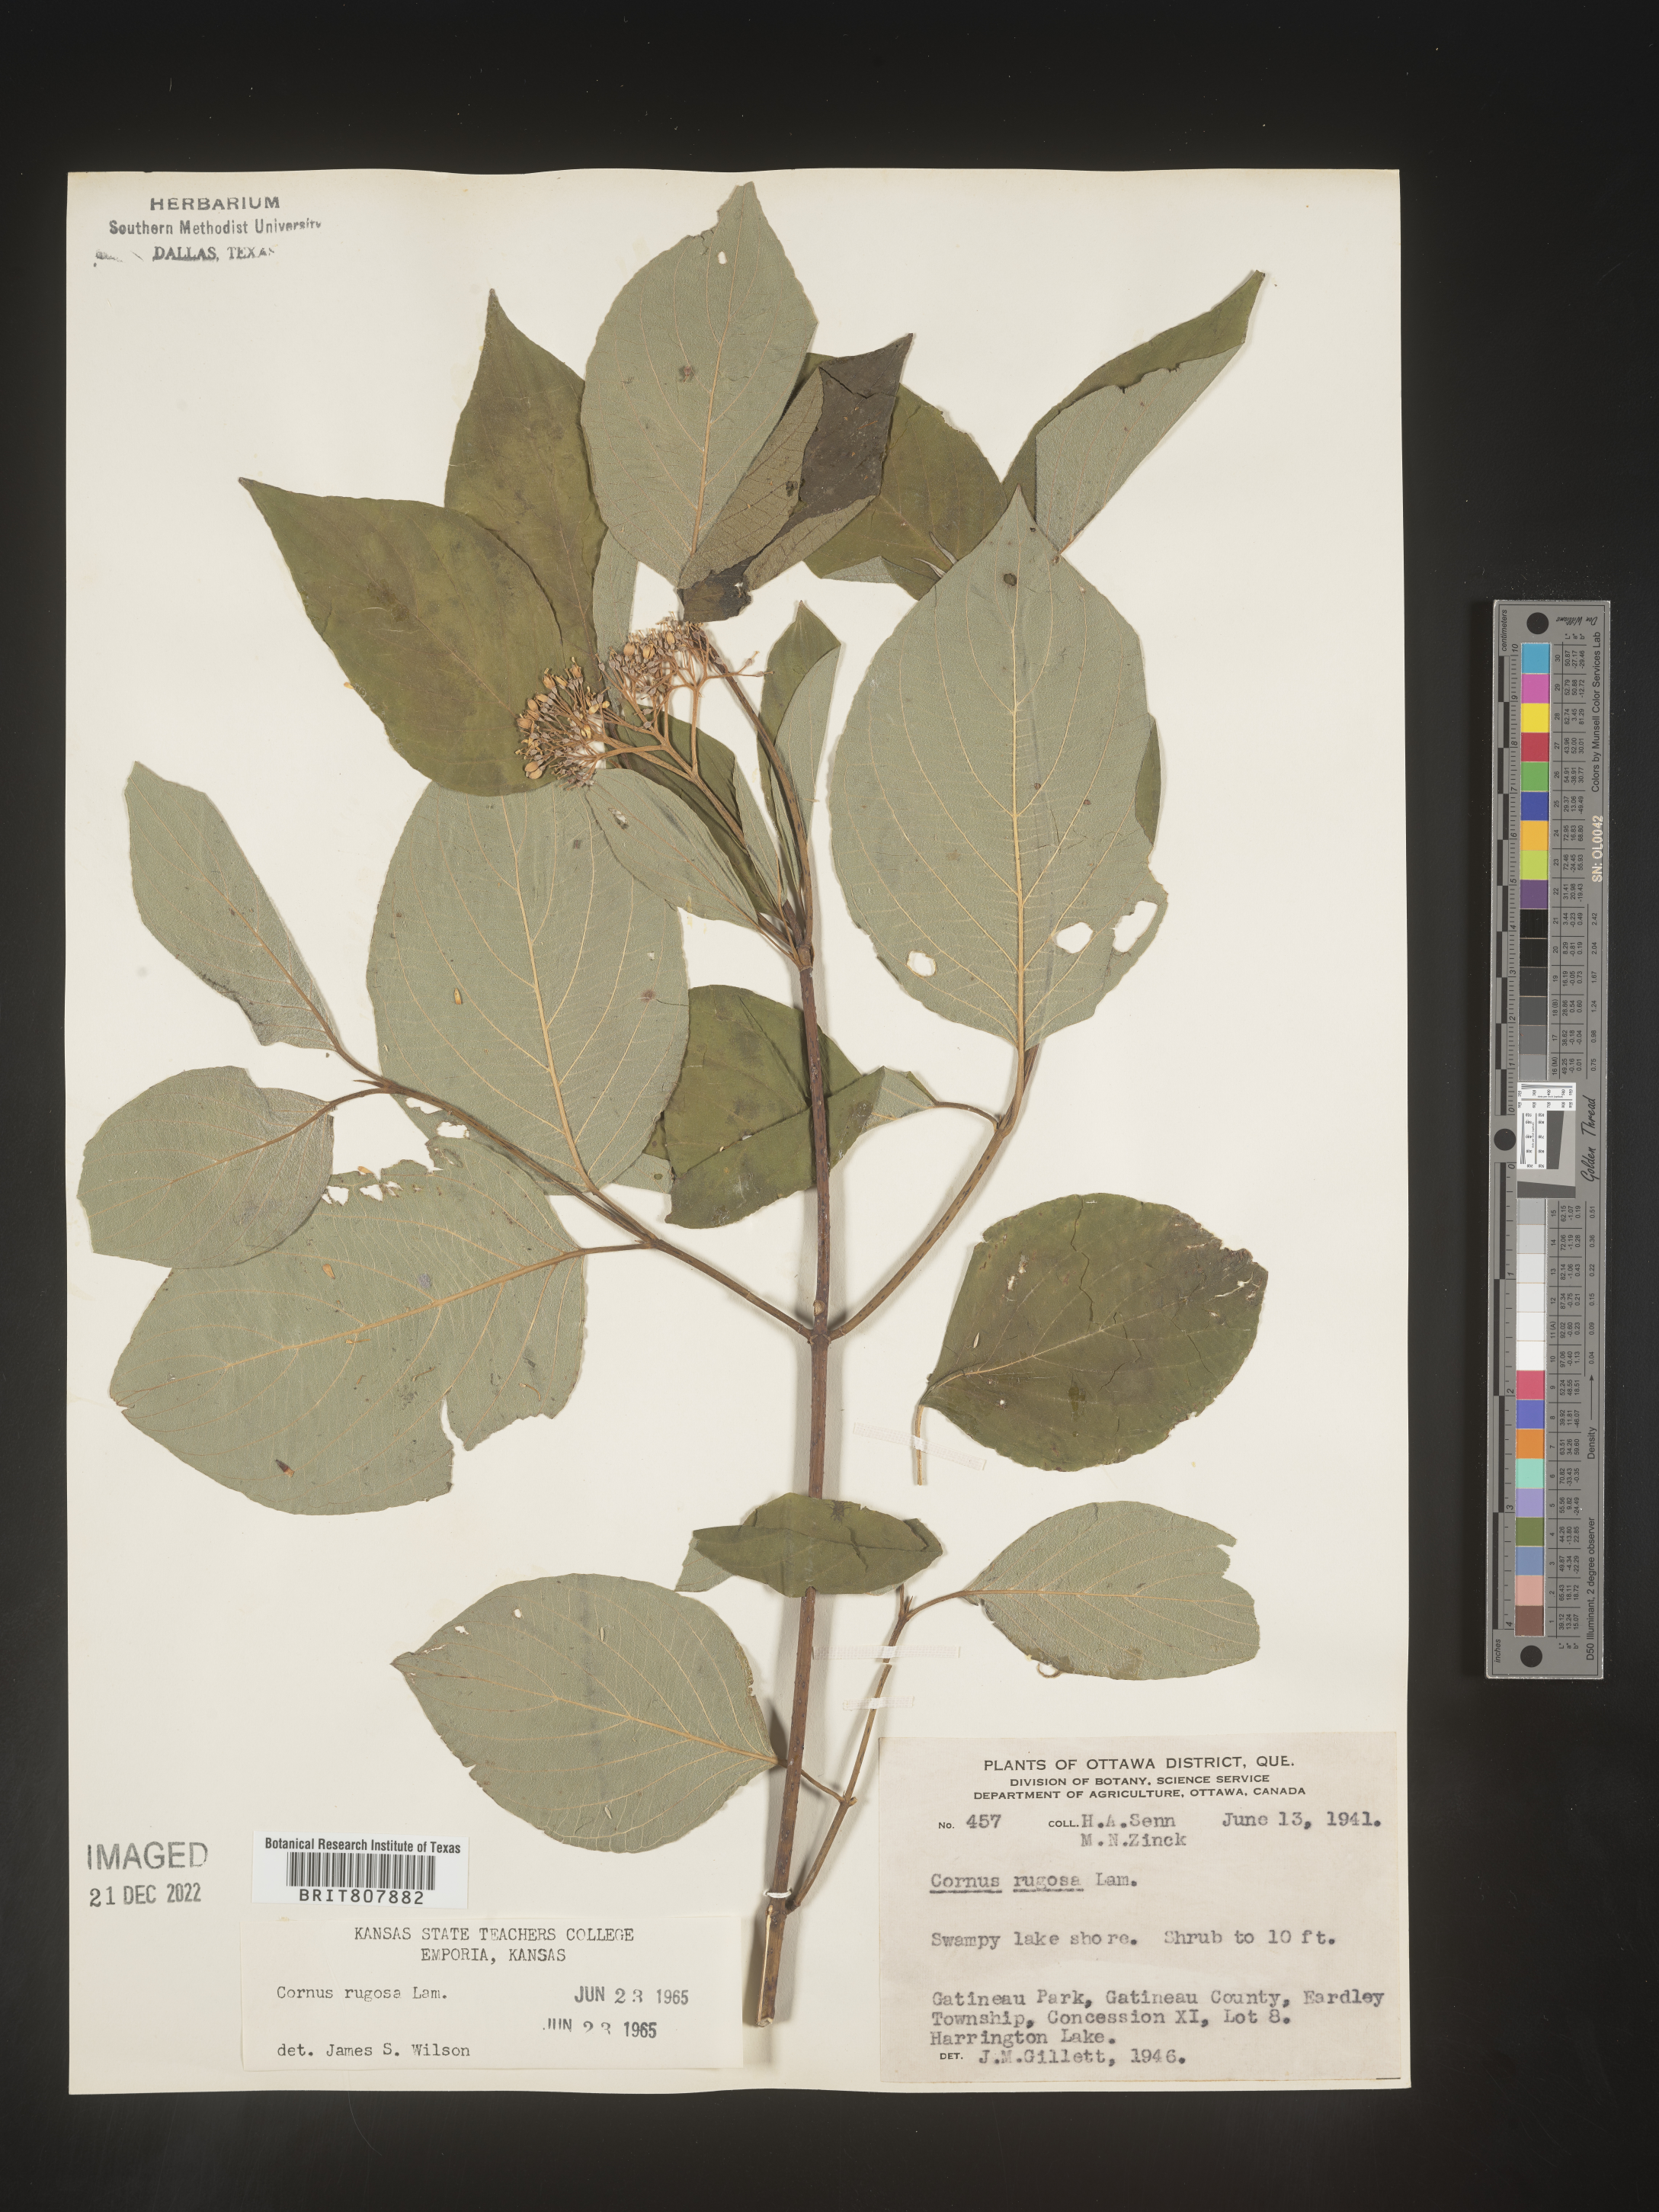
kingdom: Plantae
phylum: Tracheophyta
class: Magnoliopsida
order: Cornales
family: Cornaceae
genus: Cornus
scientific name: Cornus rugosa
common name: Round-leaf dogwood
